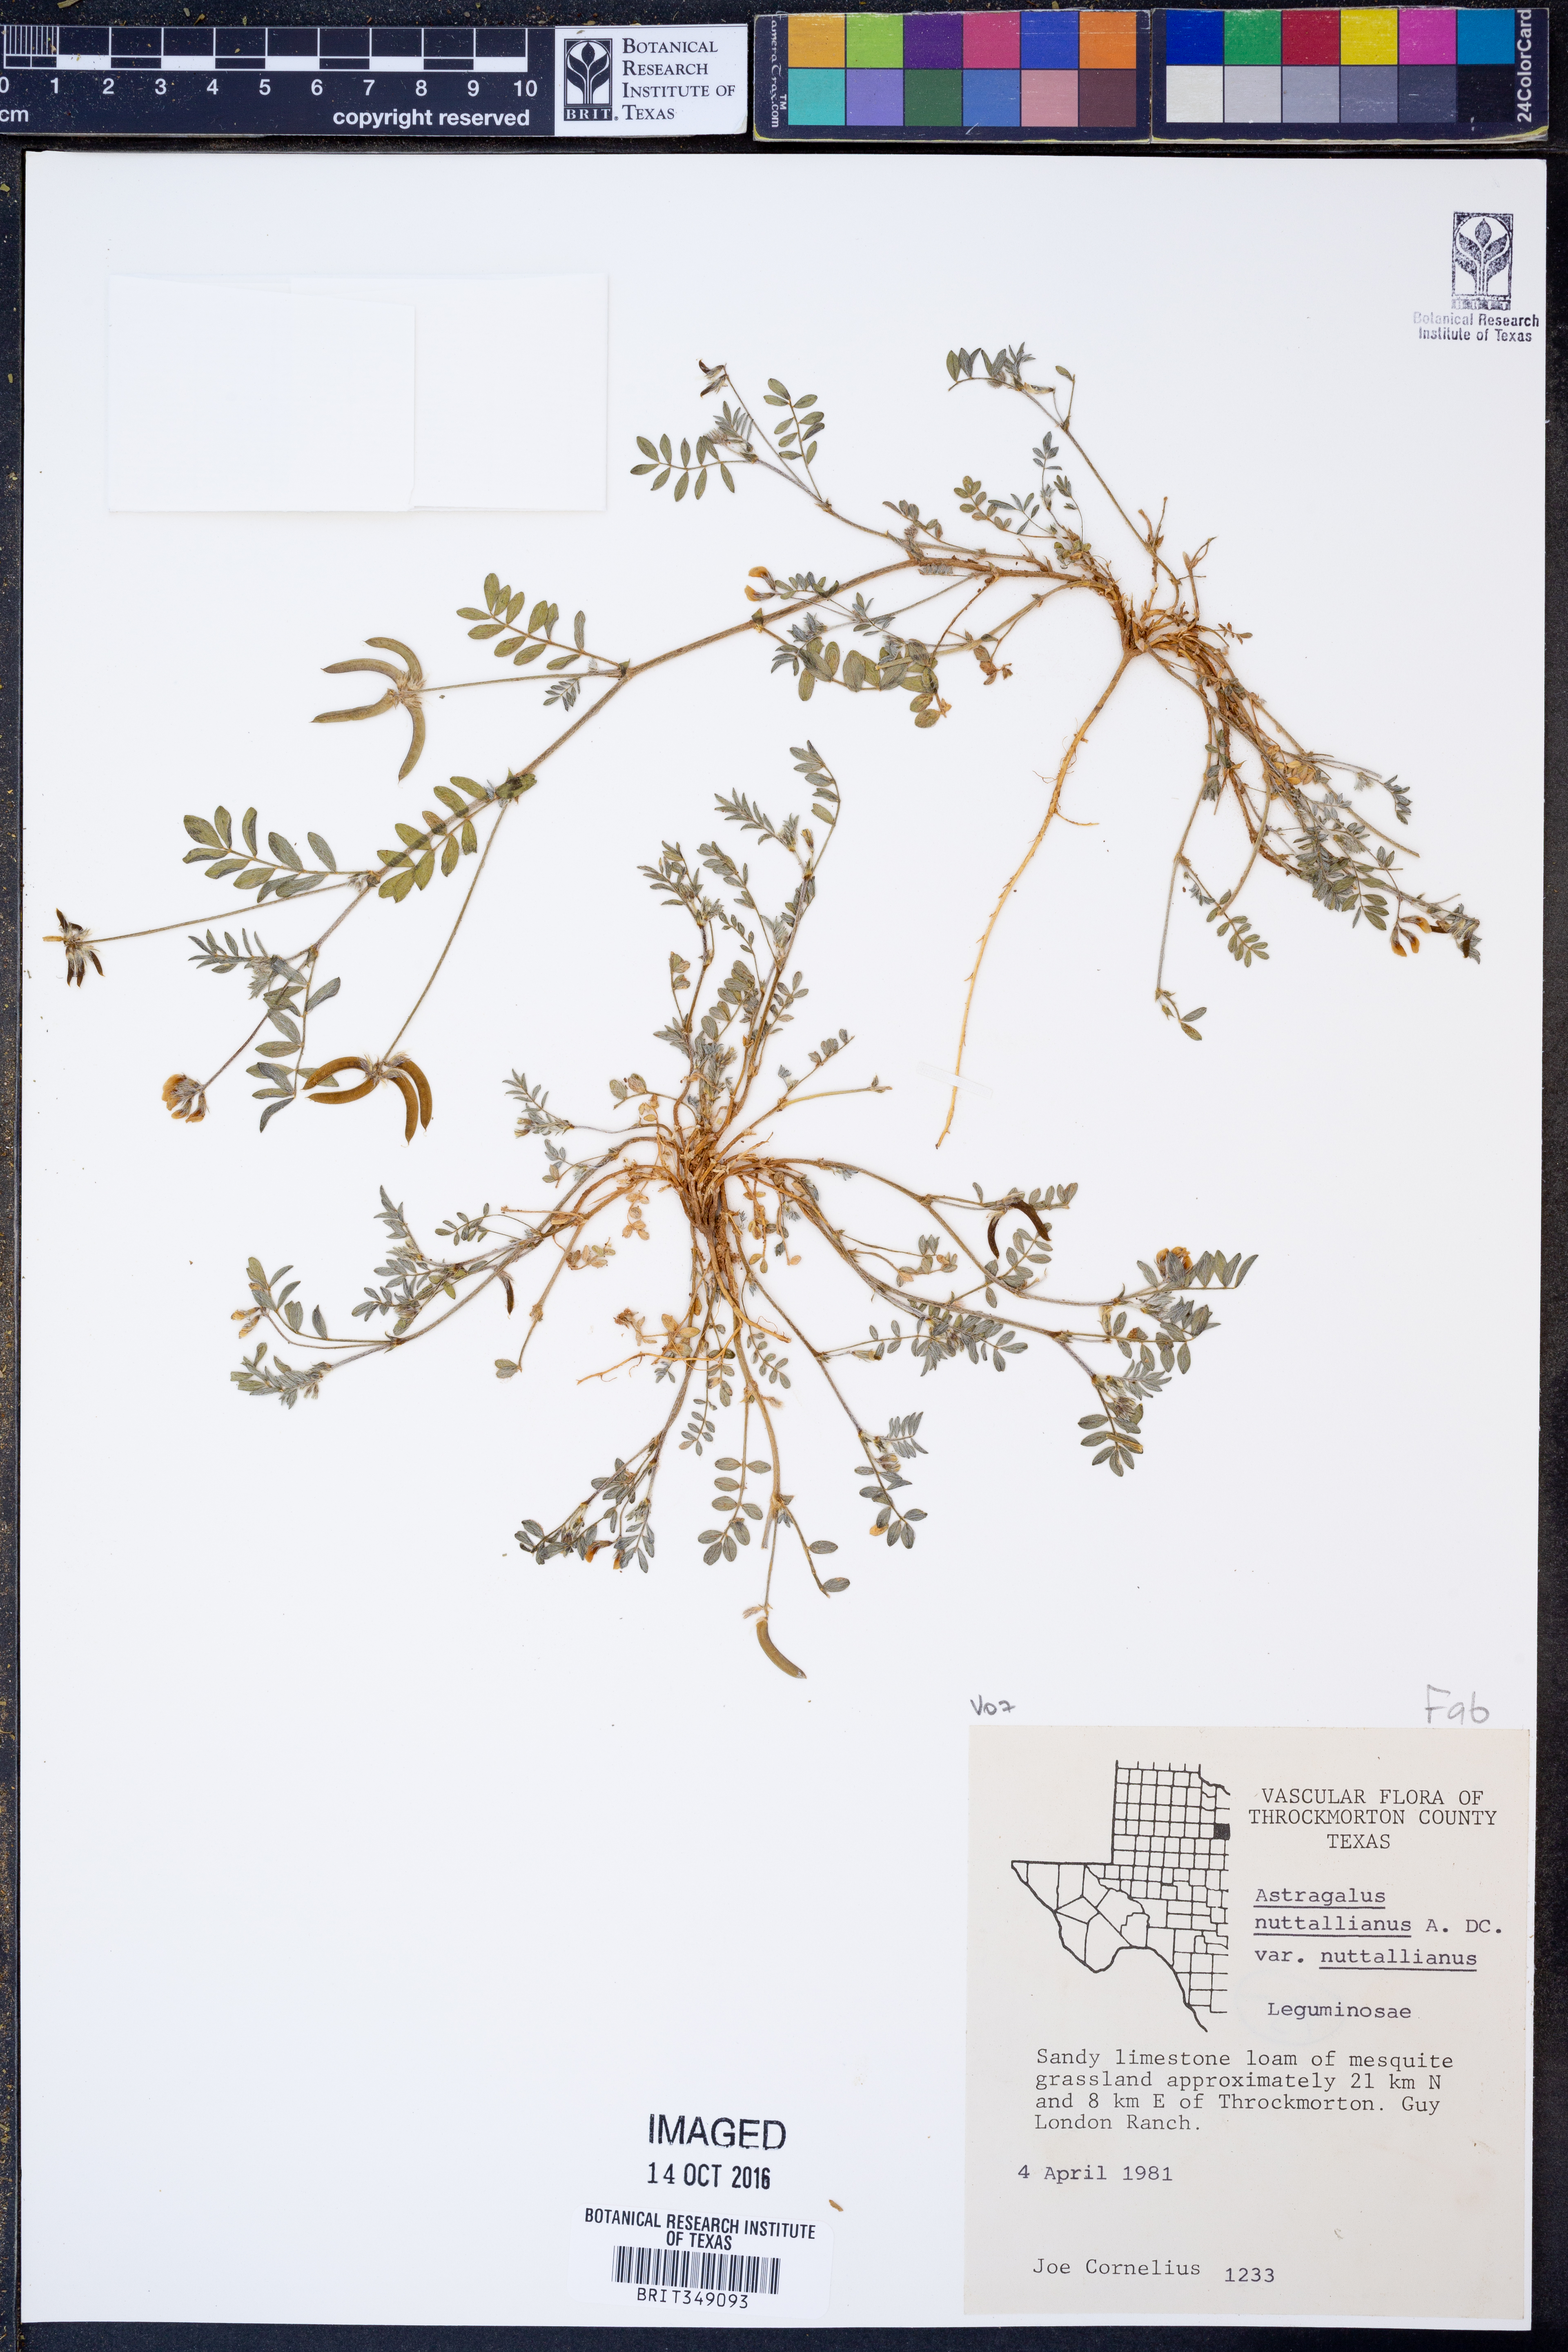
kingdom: Plantae
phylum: Tracheophyta
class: Magnoliopsida
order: Fabales
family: Fabaceae
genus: Astragalus
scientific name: Astragalus nuttallianus
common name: Smallflowered milkvetch
